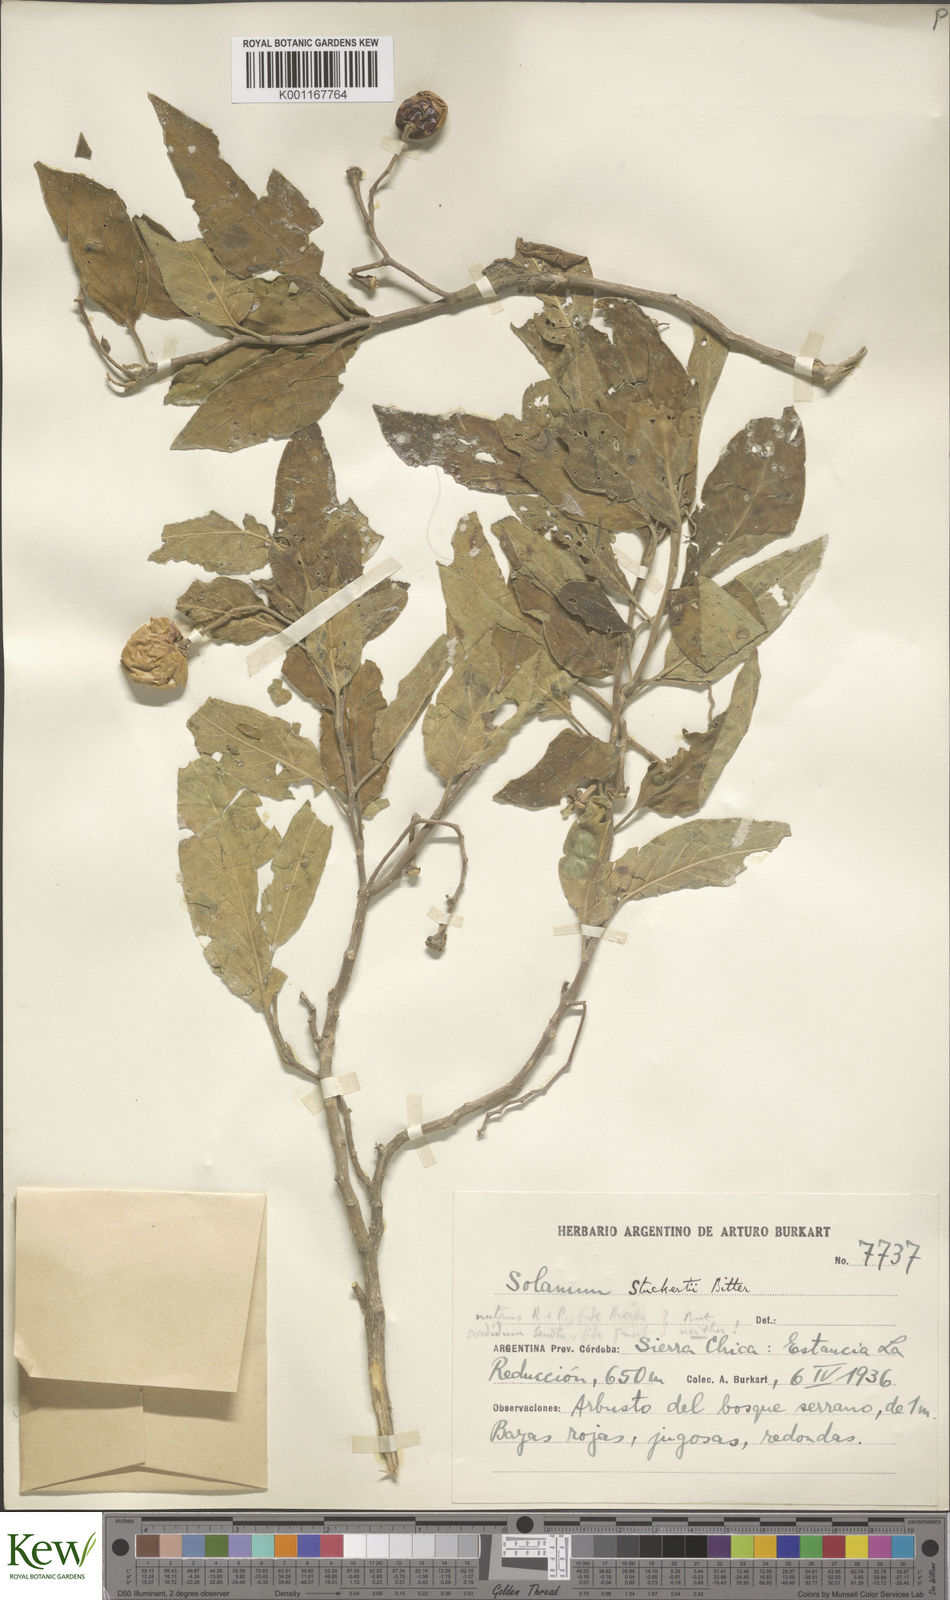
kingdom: Plantae
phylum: Tracheophyta
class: Magnoliopsida
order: Solanales
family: Solanaceae
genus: Solanum
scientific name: Solanum stuckertii
